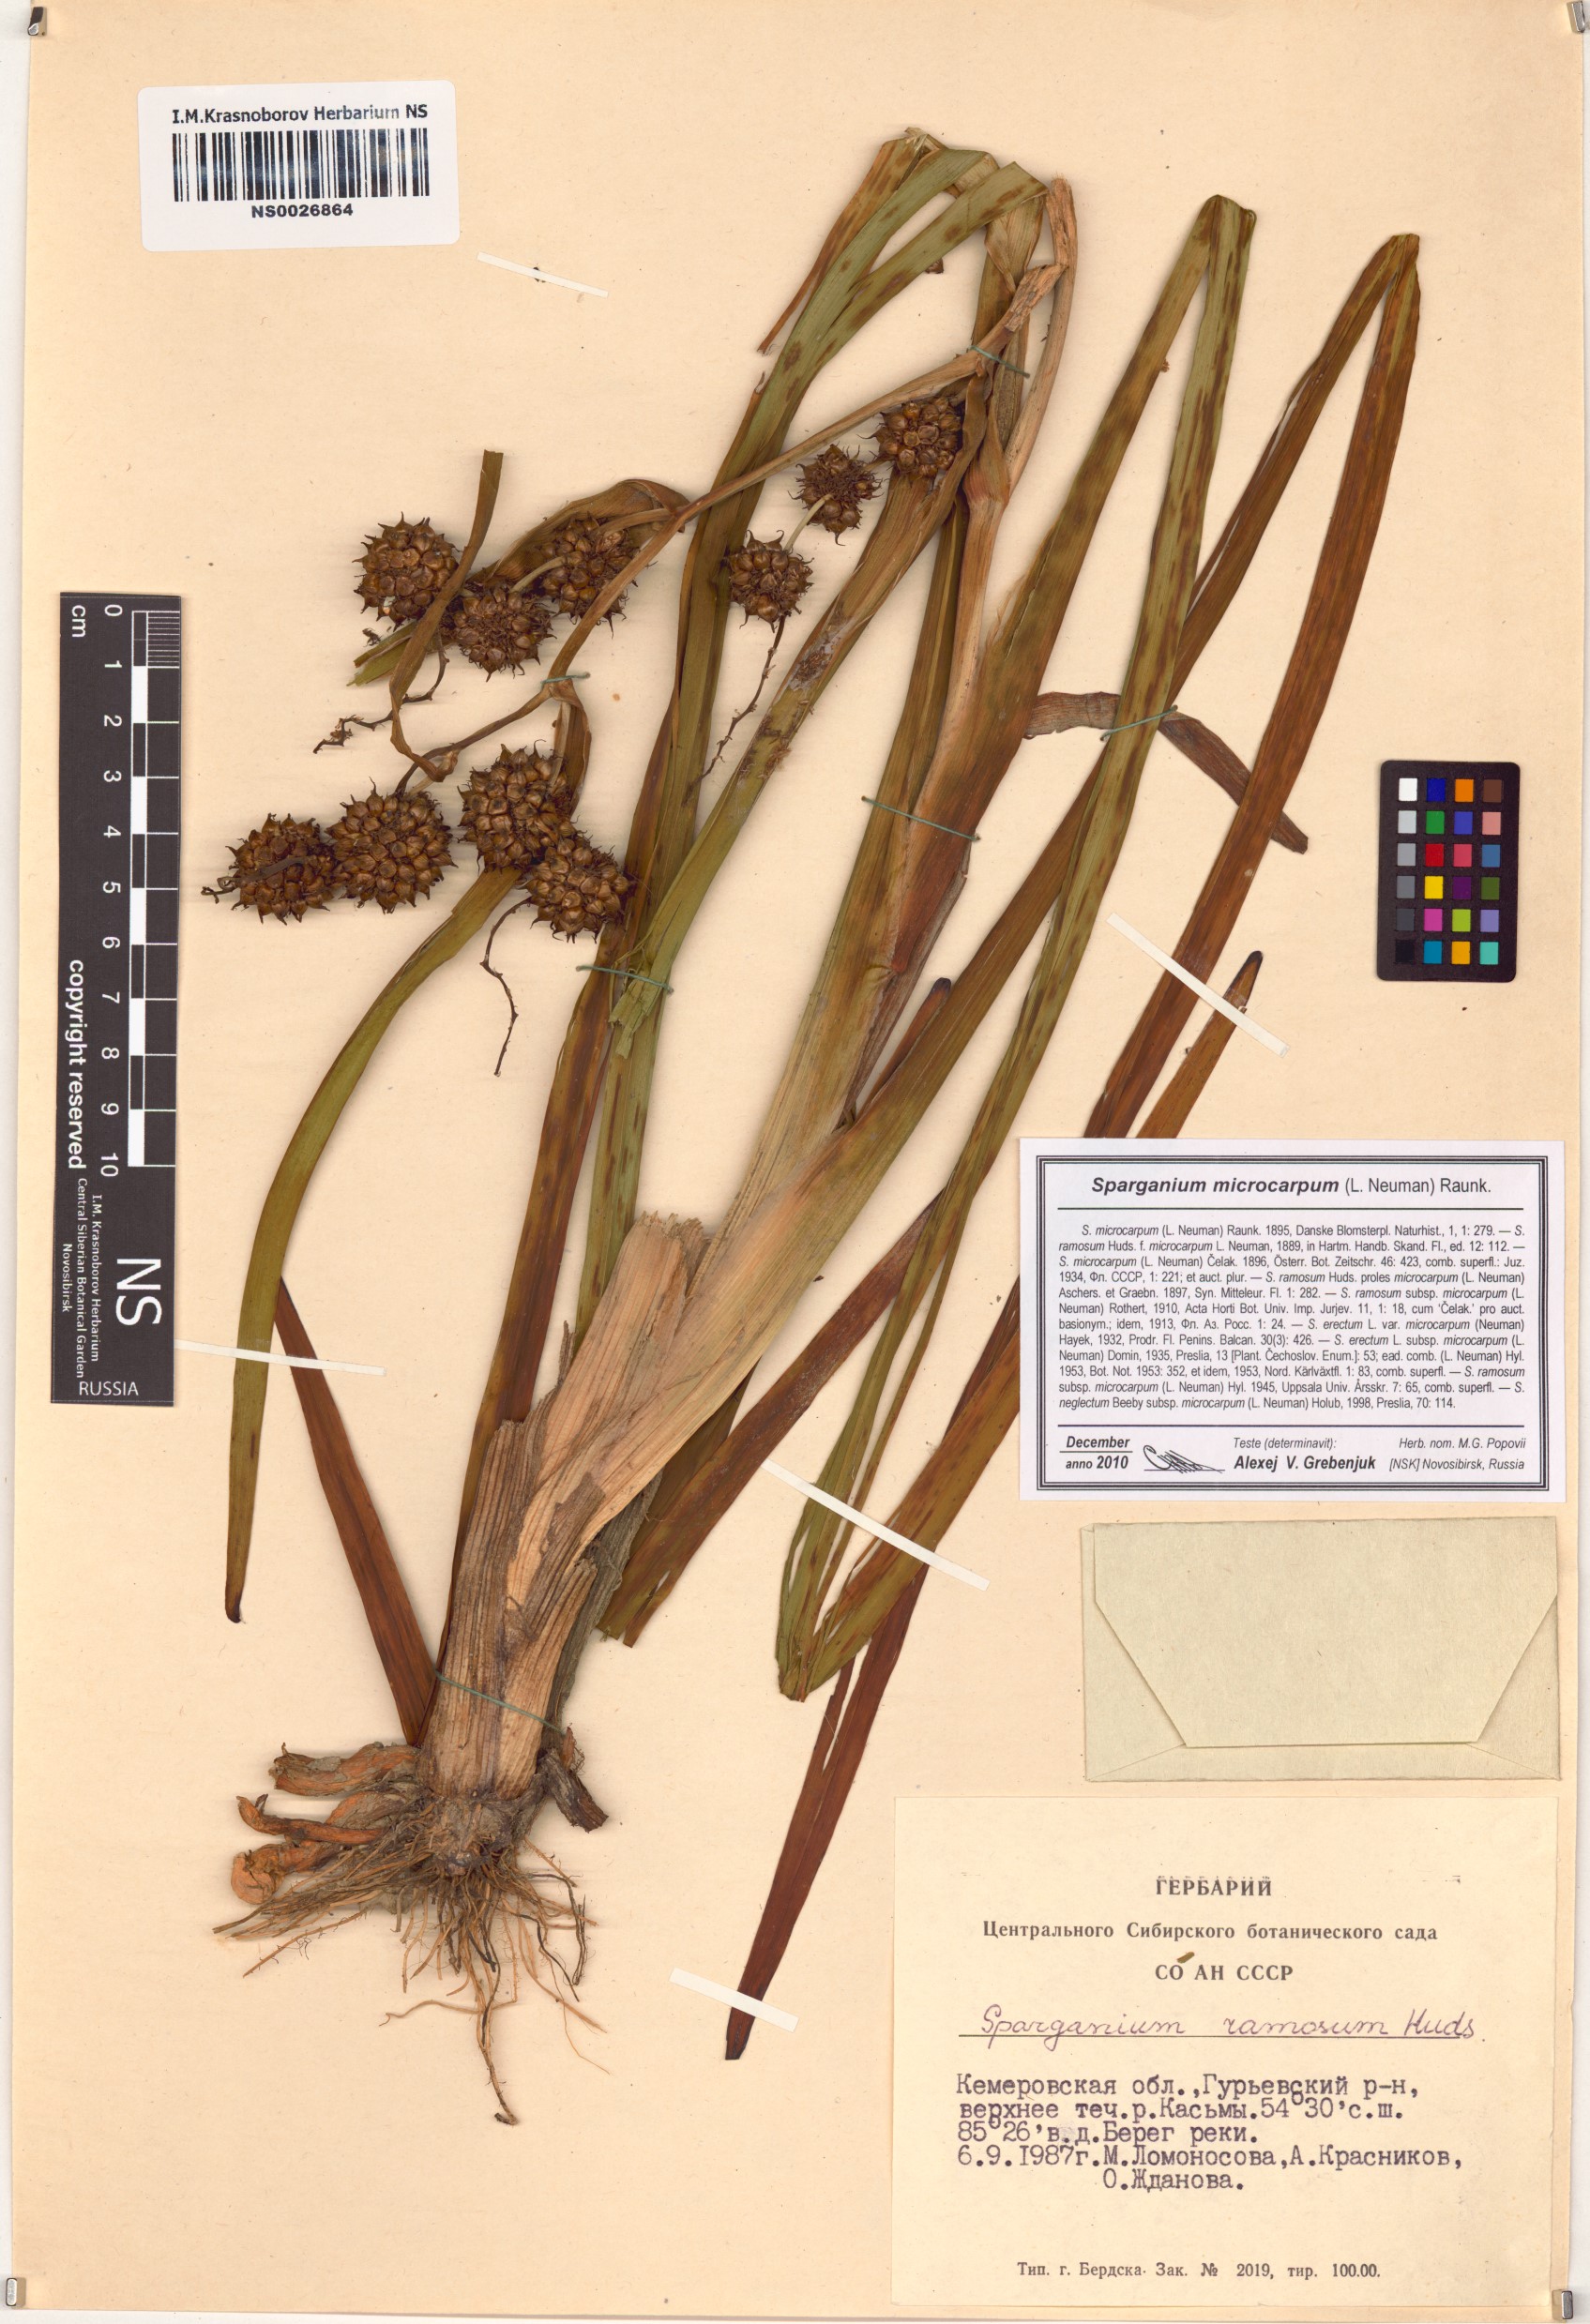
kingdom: Plantae
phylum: Tracheophyta
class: Liliopsida
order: Poales
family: Typhaceae
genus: Sparganium
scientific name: Sparganium erectum
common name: Branched bur-reed
